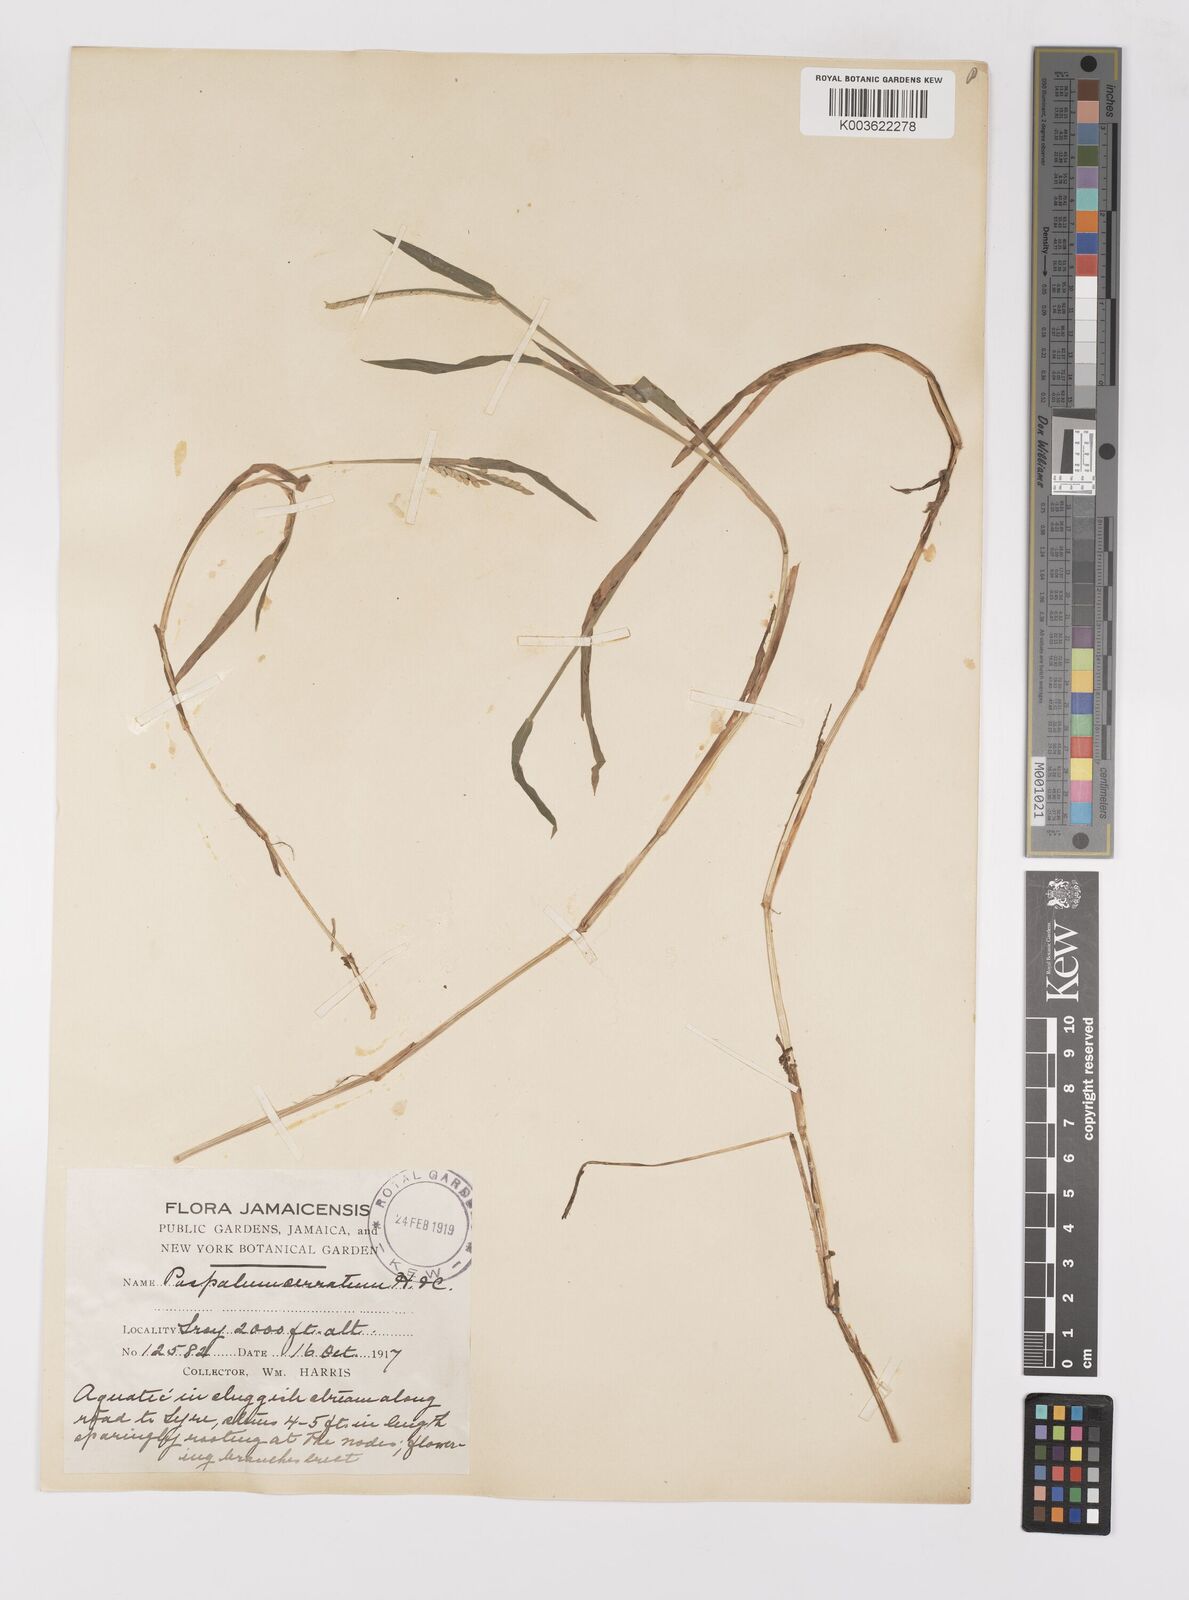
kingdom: Plantae
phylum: Tracheophyta
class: Liliopsida
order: Poales
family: Poaceae
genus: Paspalum
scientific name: Paspalum acuminatum
